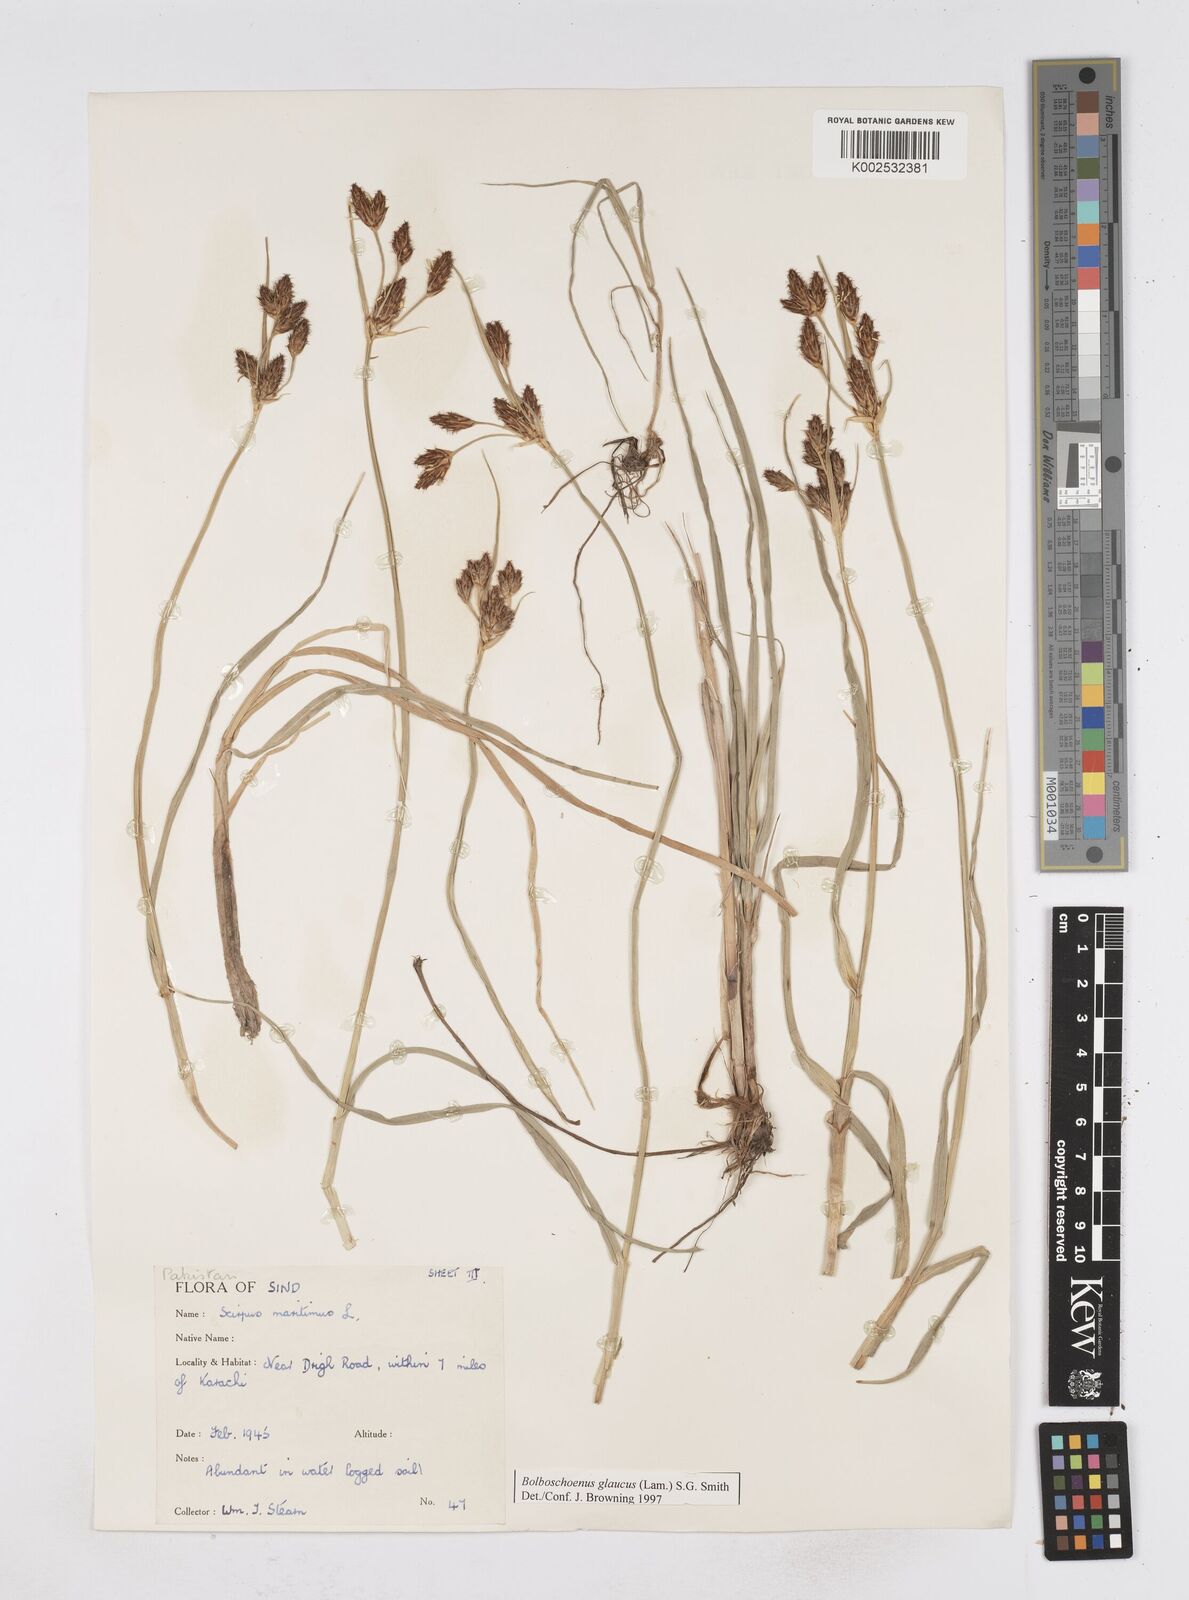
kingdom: Plantae
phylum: Tracheophyta
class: Liliopsida
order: Poales
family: Cyperaceae
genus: Bolboschoenus
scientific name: Bolboschoenus maritimus
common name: Sea club-rush
